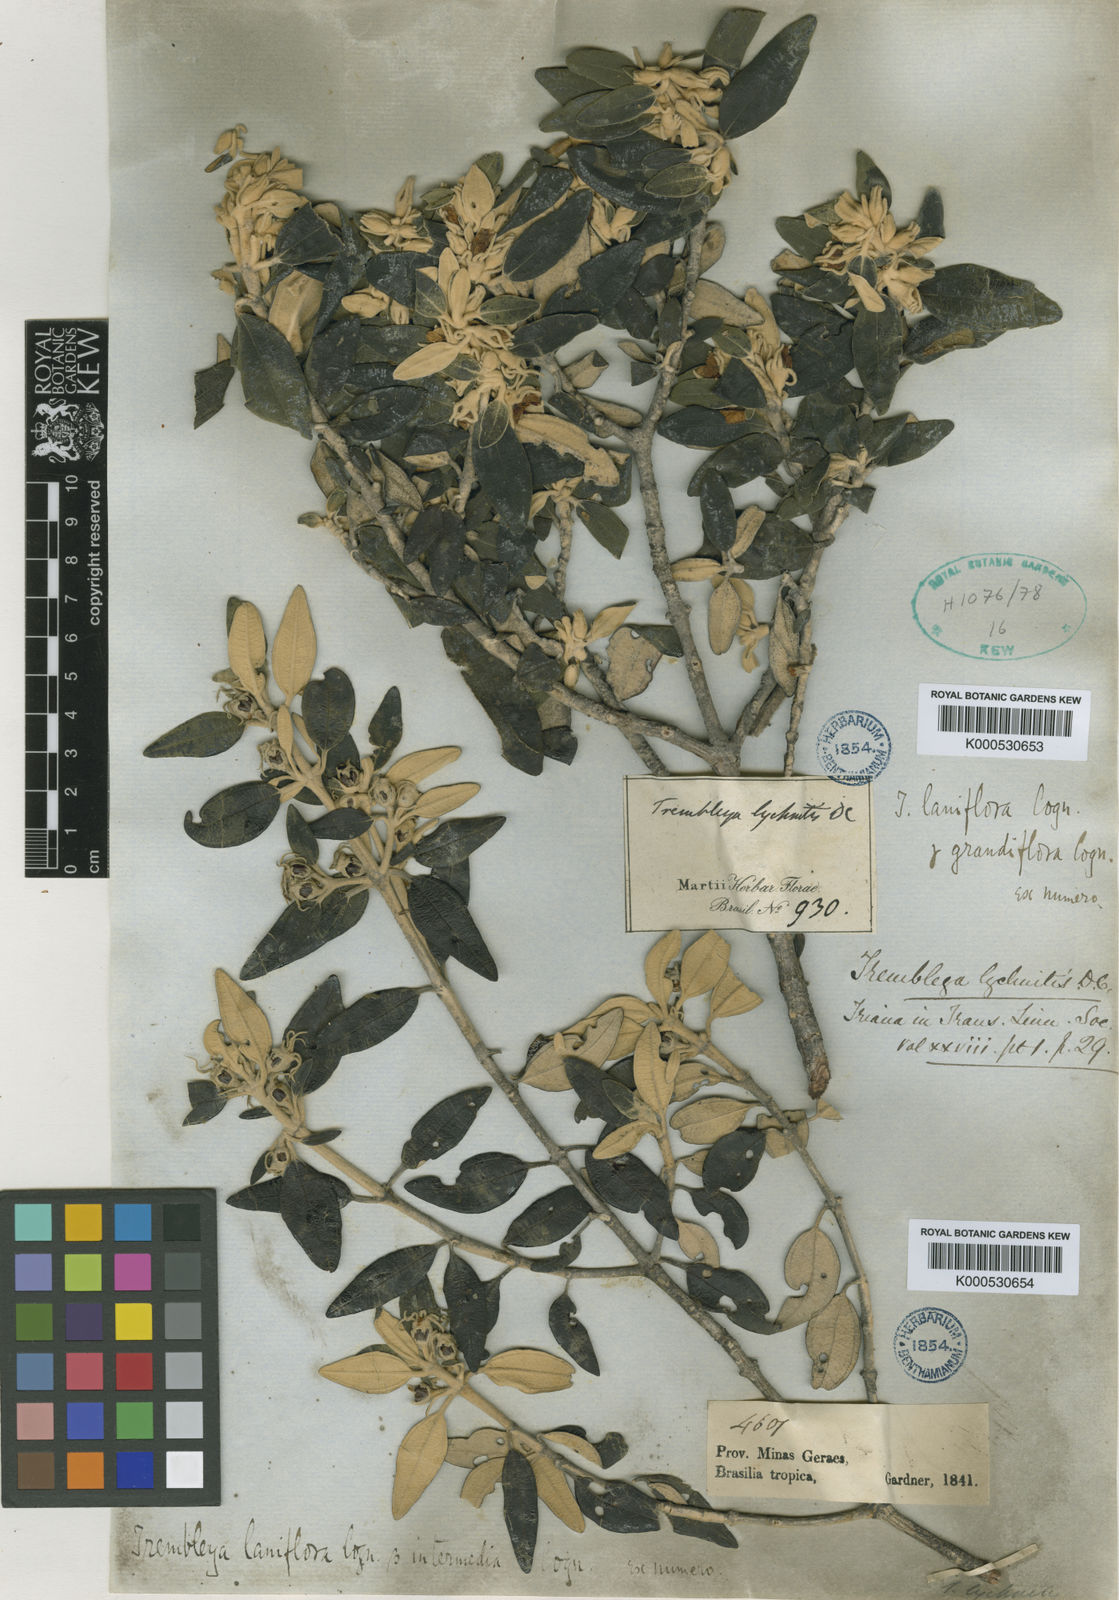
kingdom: Plantae
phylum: Tracheophyta
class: Magnoliopsida
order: Myrtales
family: Melastomataceae
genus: Microlicia
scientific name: Microlicia laniflora
